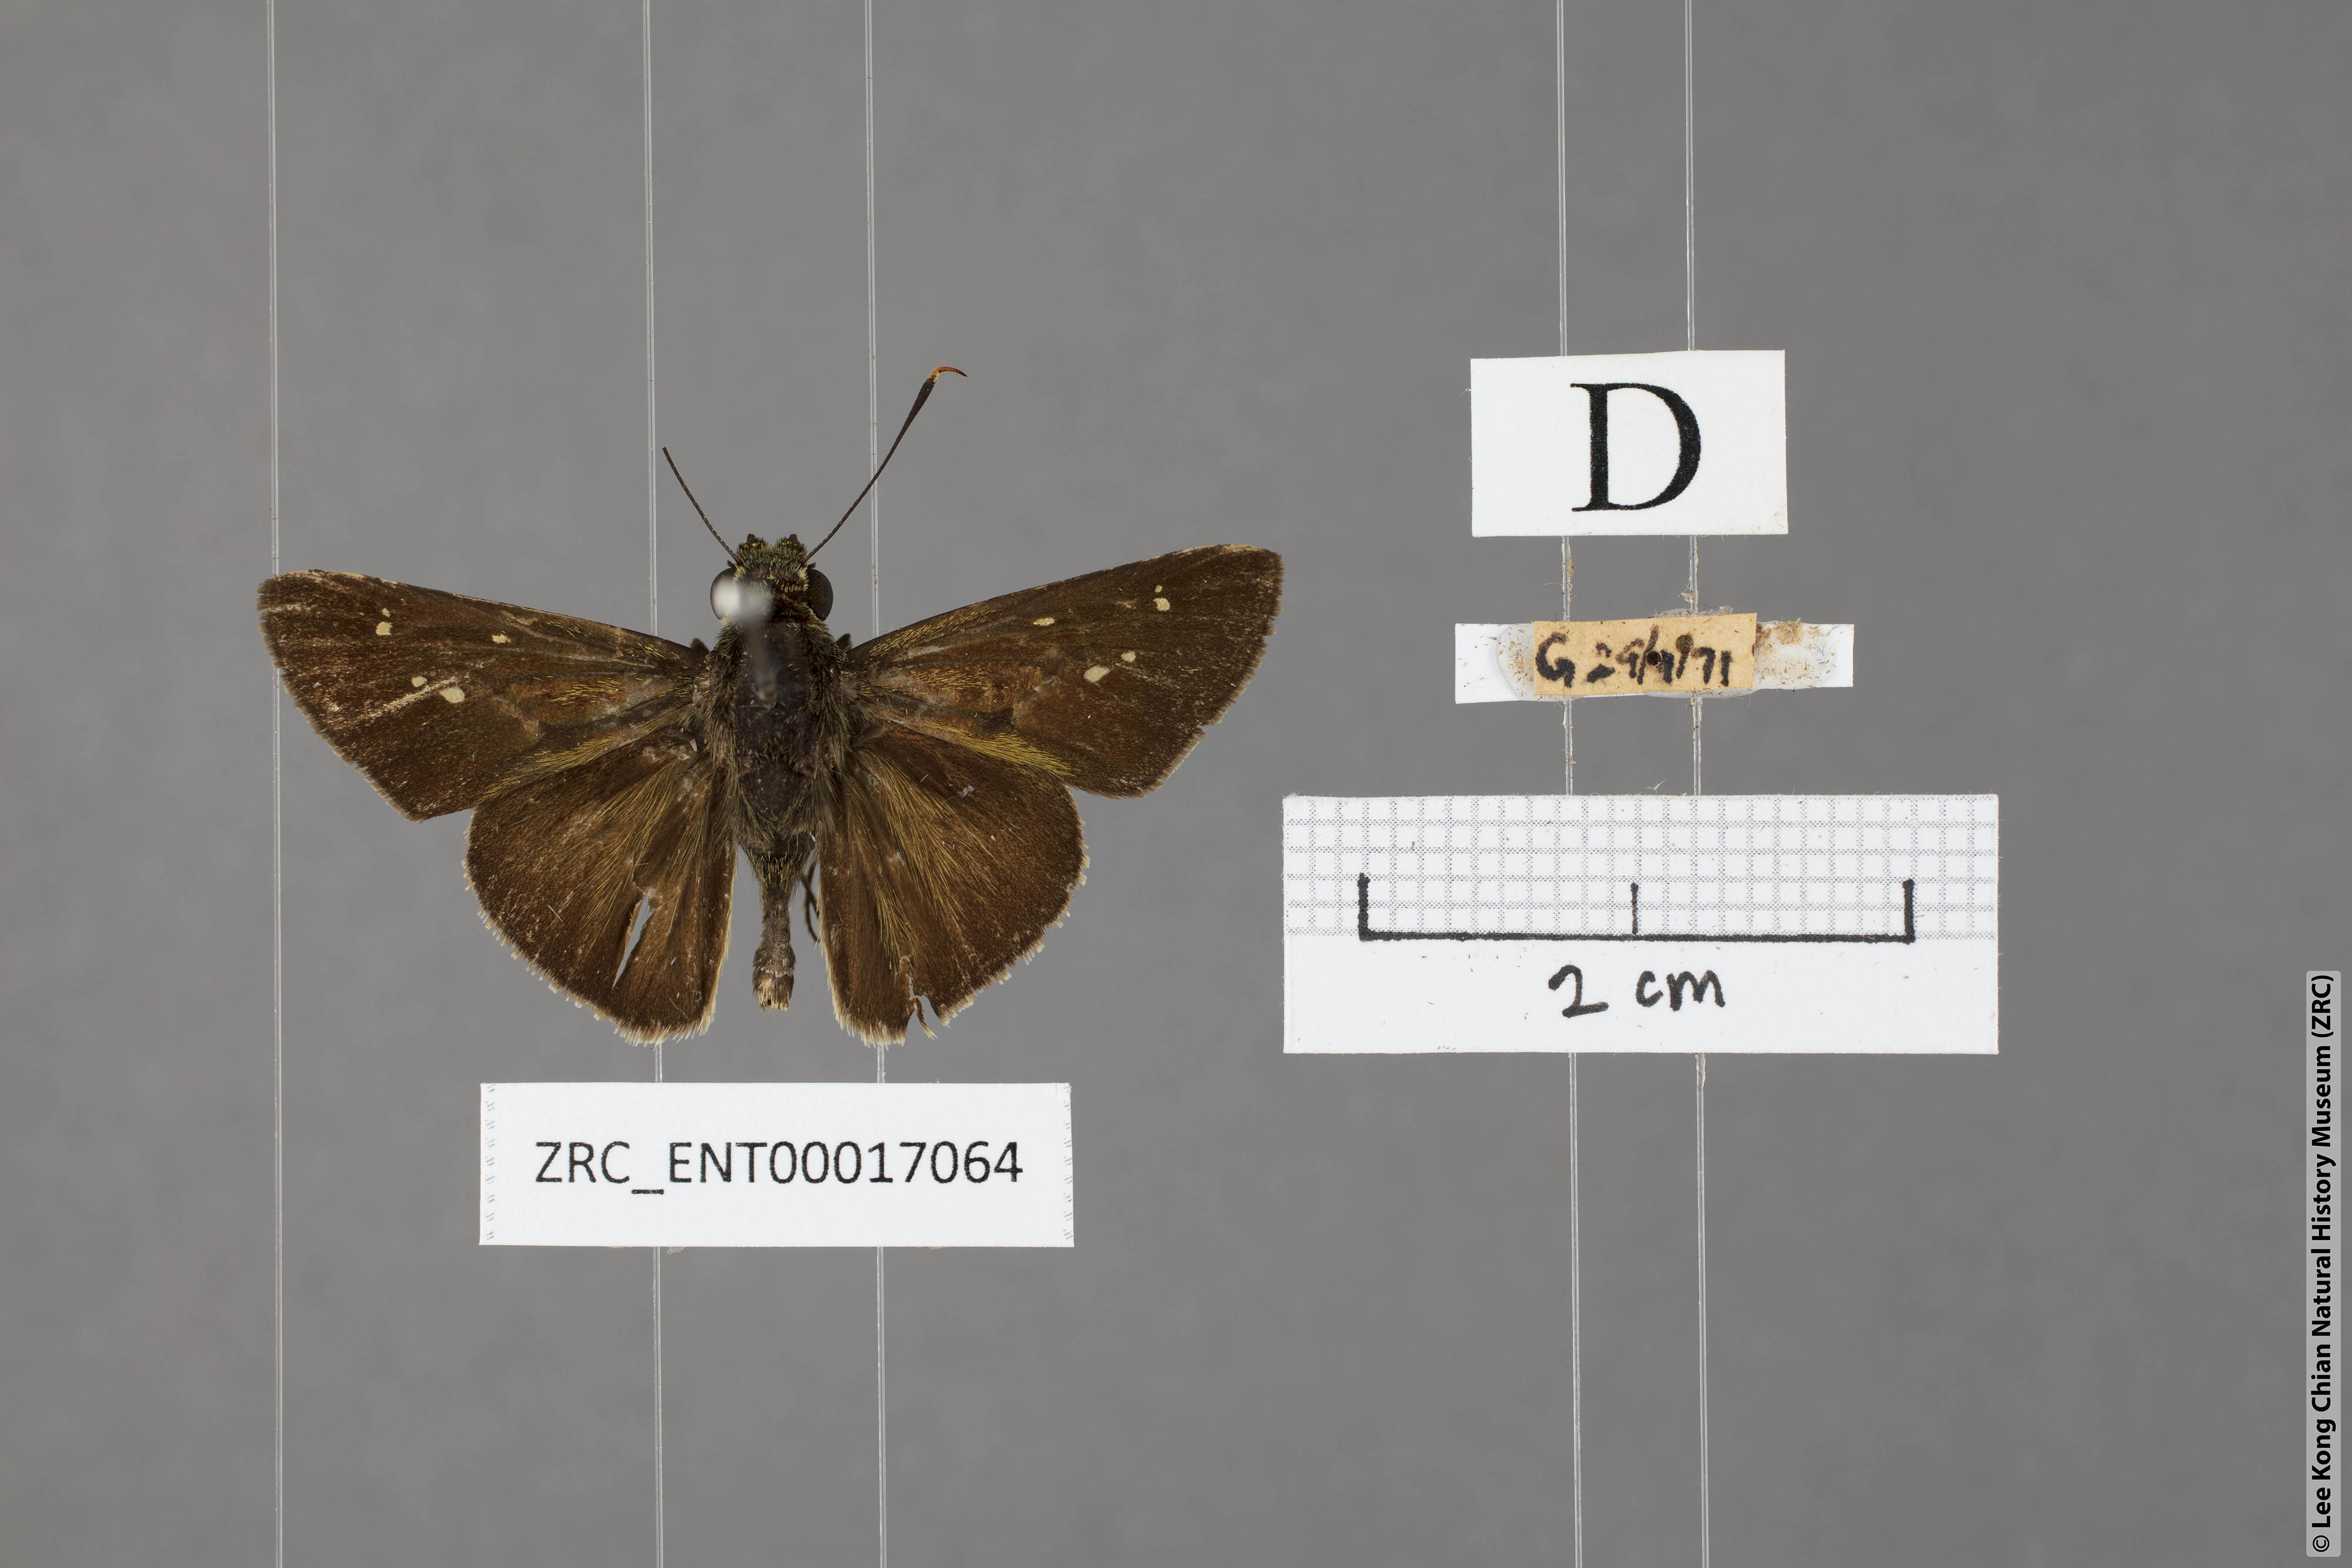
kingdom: Animalia
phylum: Arthropoda
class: Insecta
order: Lepidoptera
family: Hesperiidae
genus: Halpe
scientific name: Halpe sikkima
